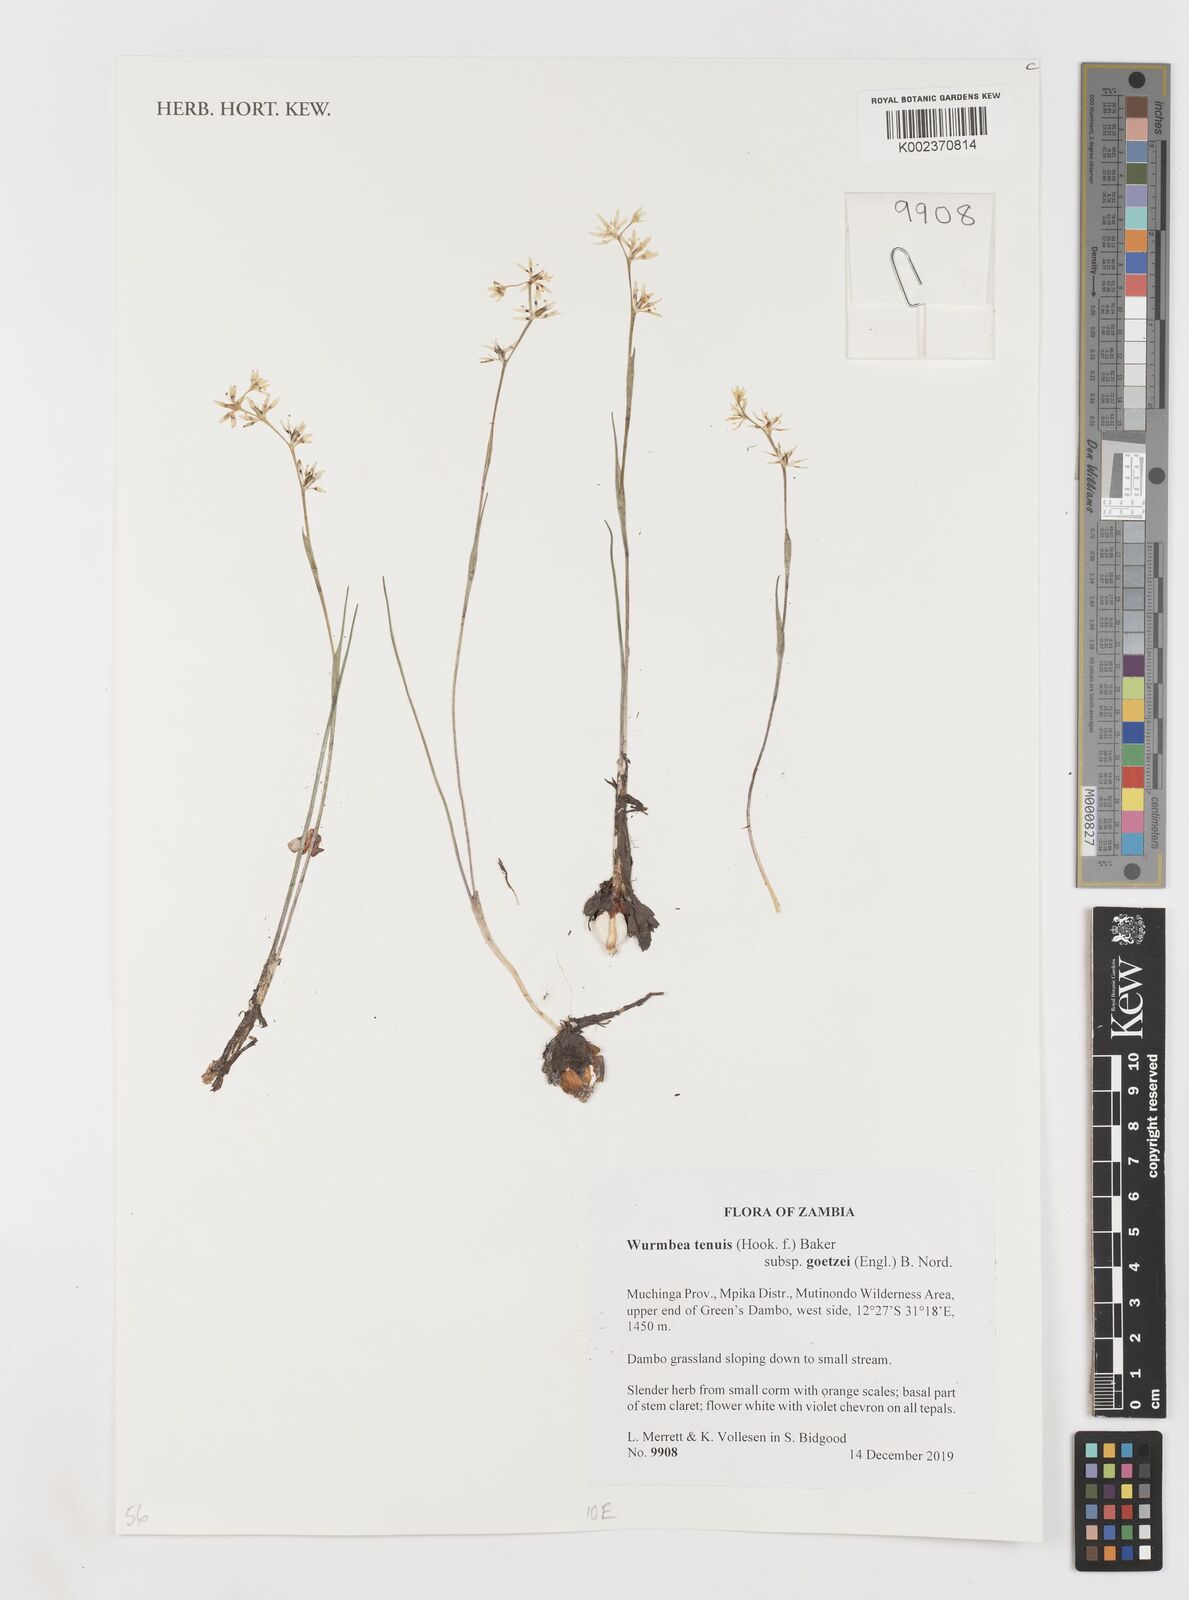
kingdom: Plantae
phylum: Tracheophyta
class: Liliopsida
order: Liliales
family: Colchicaceae
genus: Wurmbea
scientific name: Wurmbea tenuis
